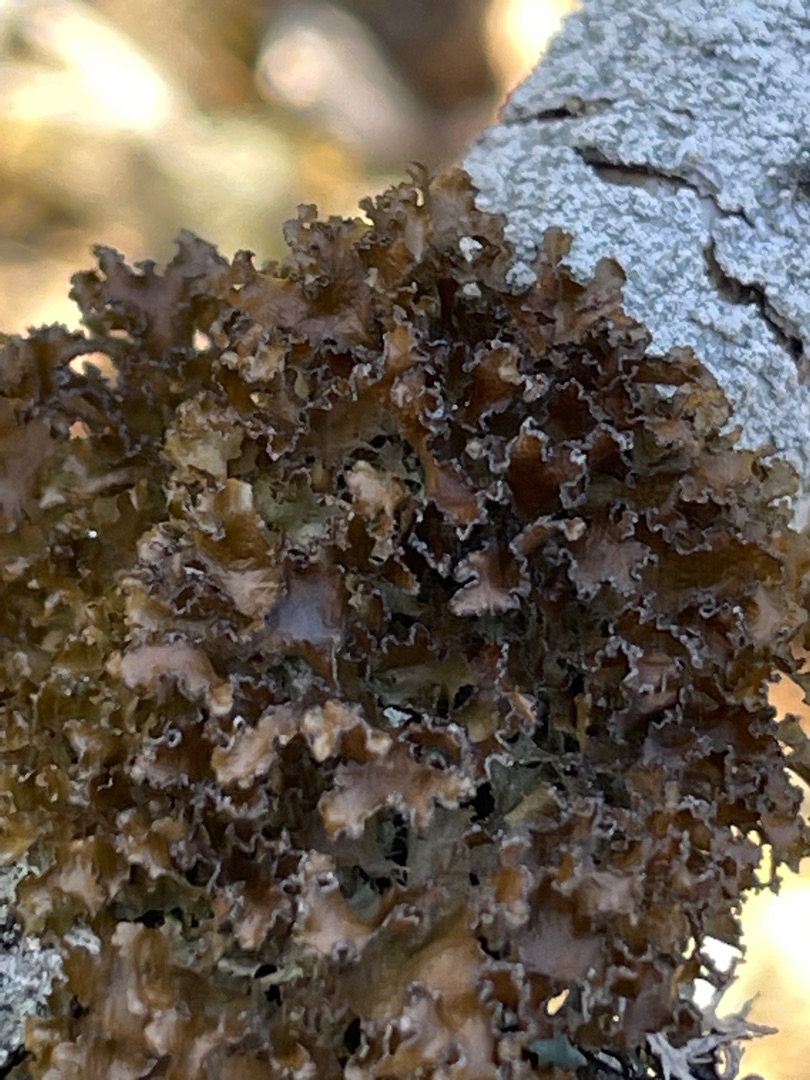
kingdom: Fungi
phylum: Ascomycota
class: Lecanoromycetes
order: Lecanorales
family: Parmeliaceae
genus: Nephromopsis
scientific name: Nephromopsis chlorophylla
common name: Olivenbrun kruslav
